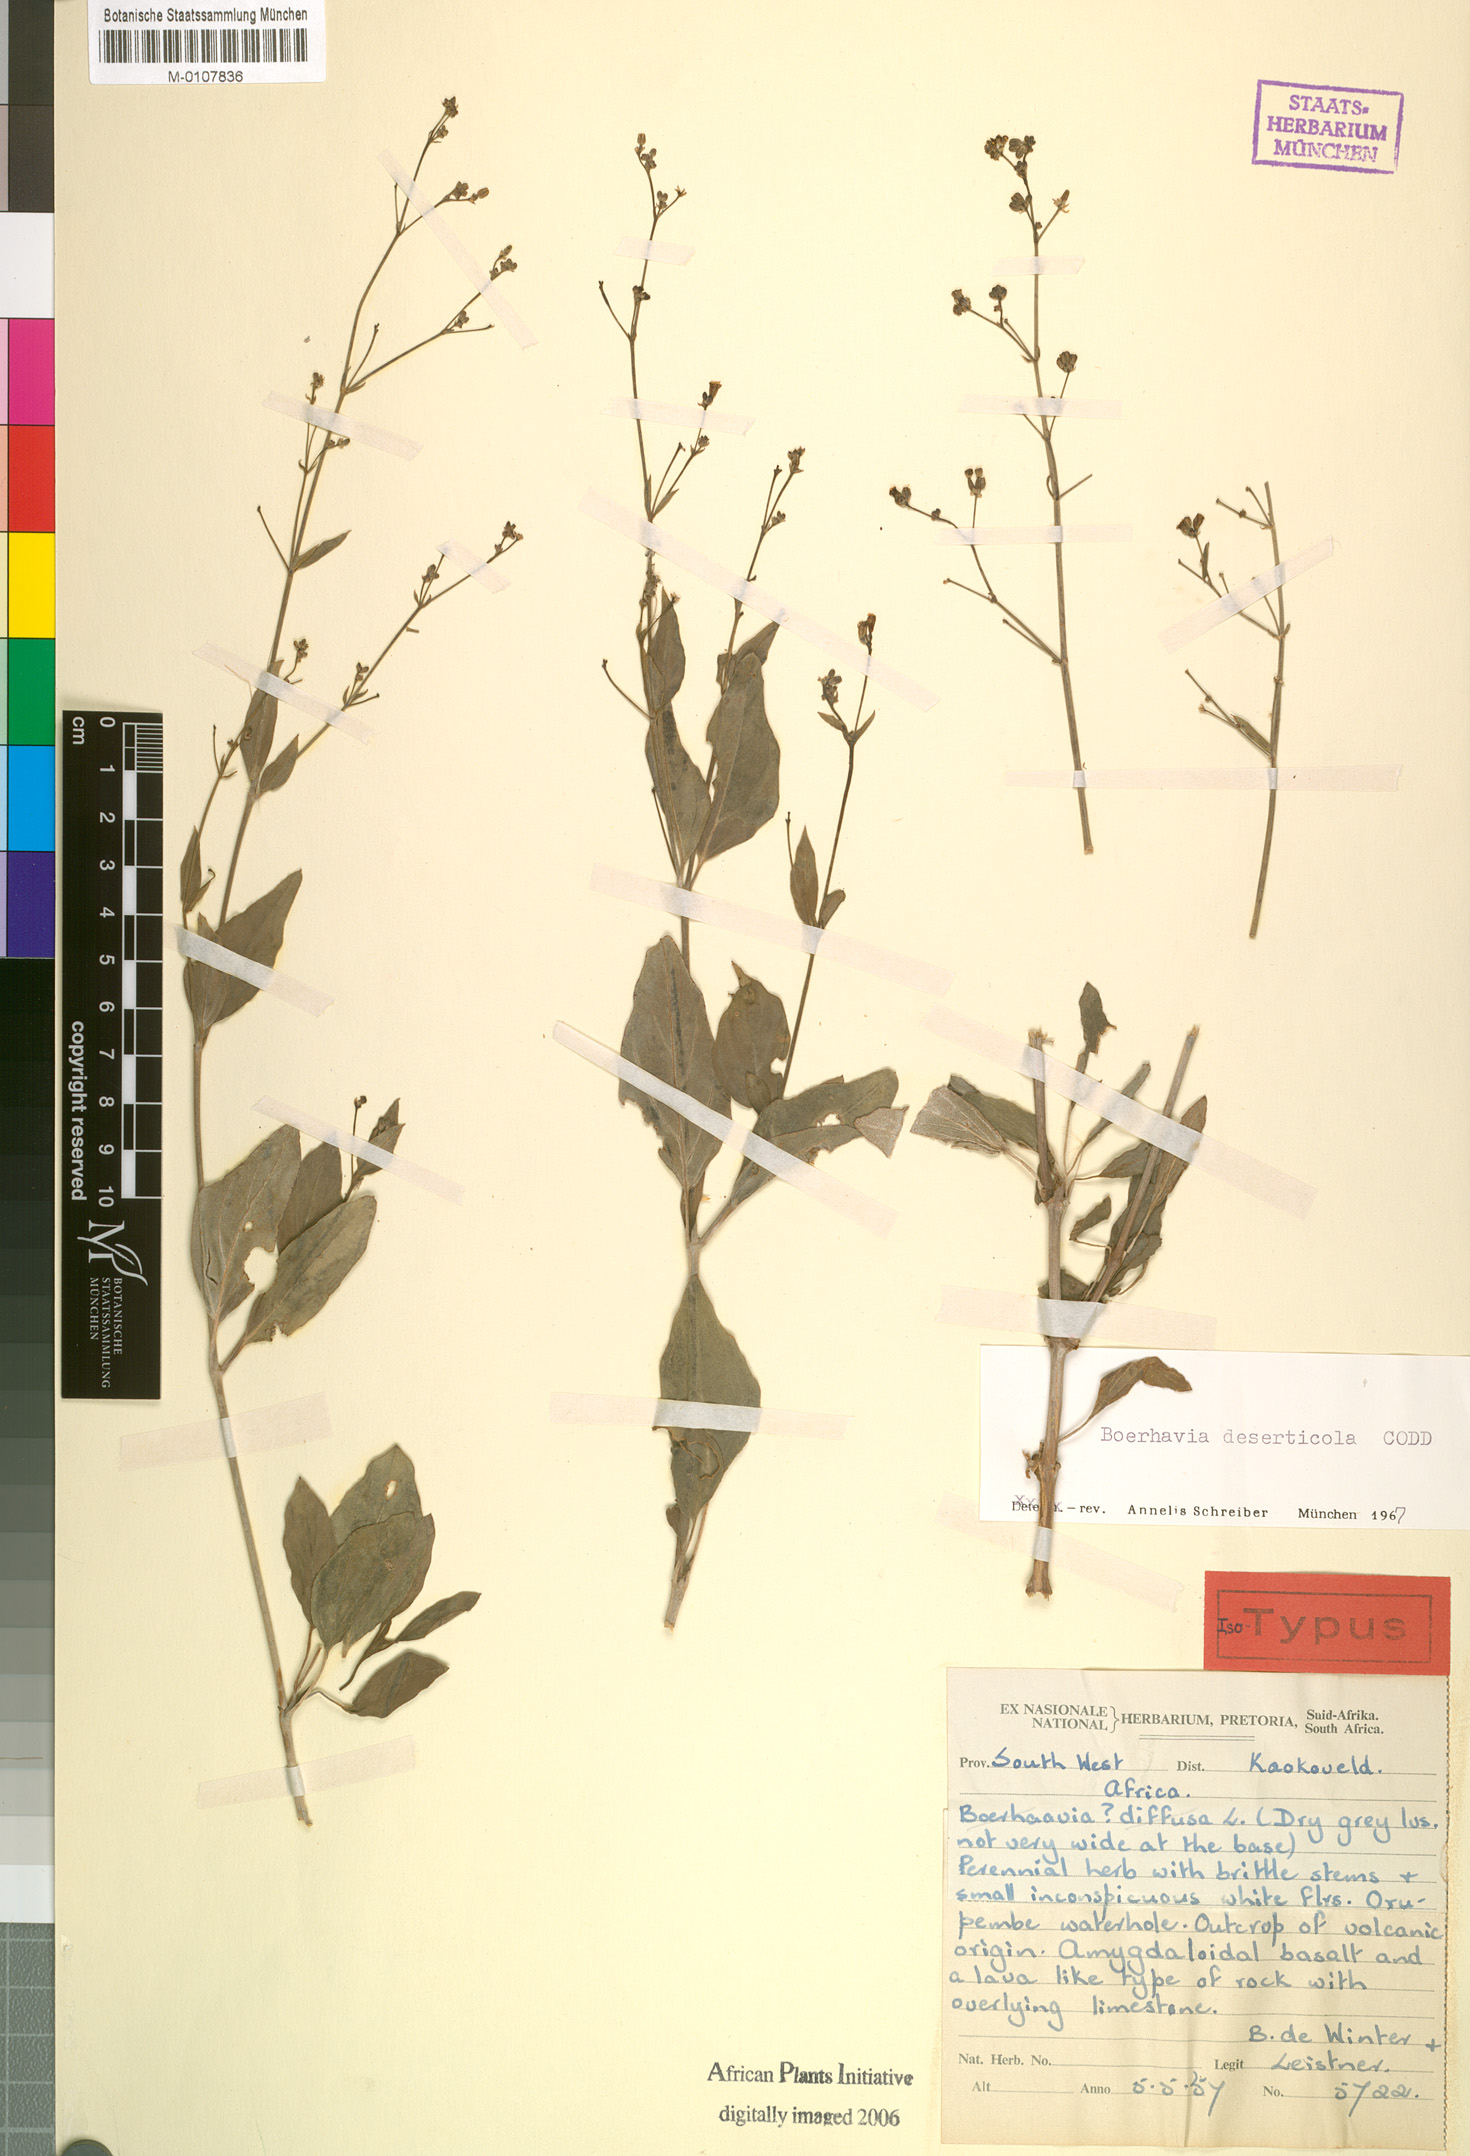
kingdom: Plantae
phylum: Tracheophyta
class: Magnoliopsida
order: Caryophyllales
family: Nyctaginaceae
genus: Boerhavia
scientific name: Boerhavia deserticola
